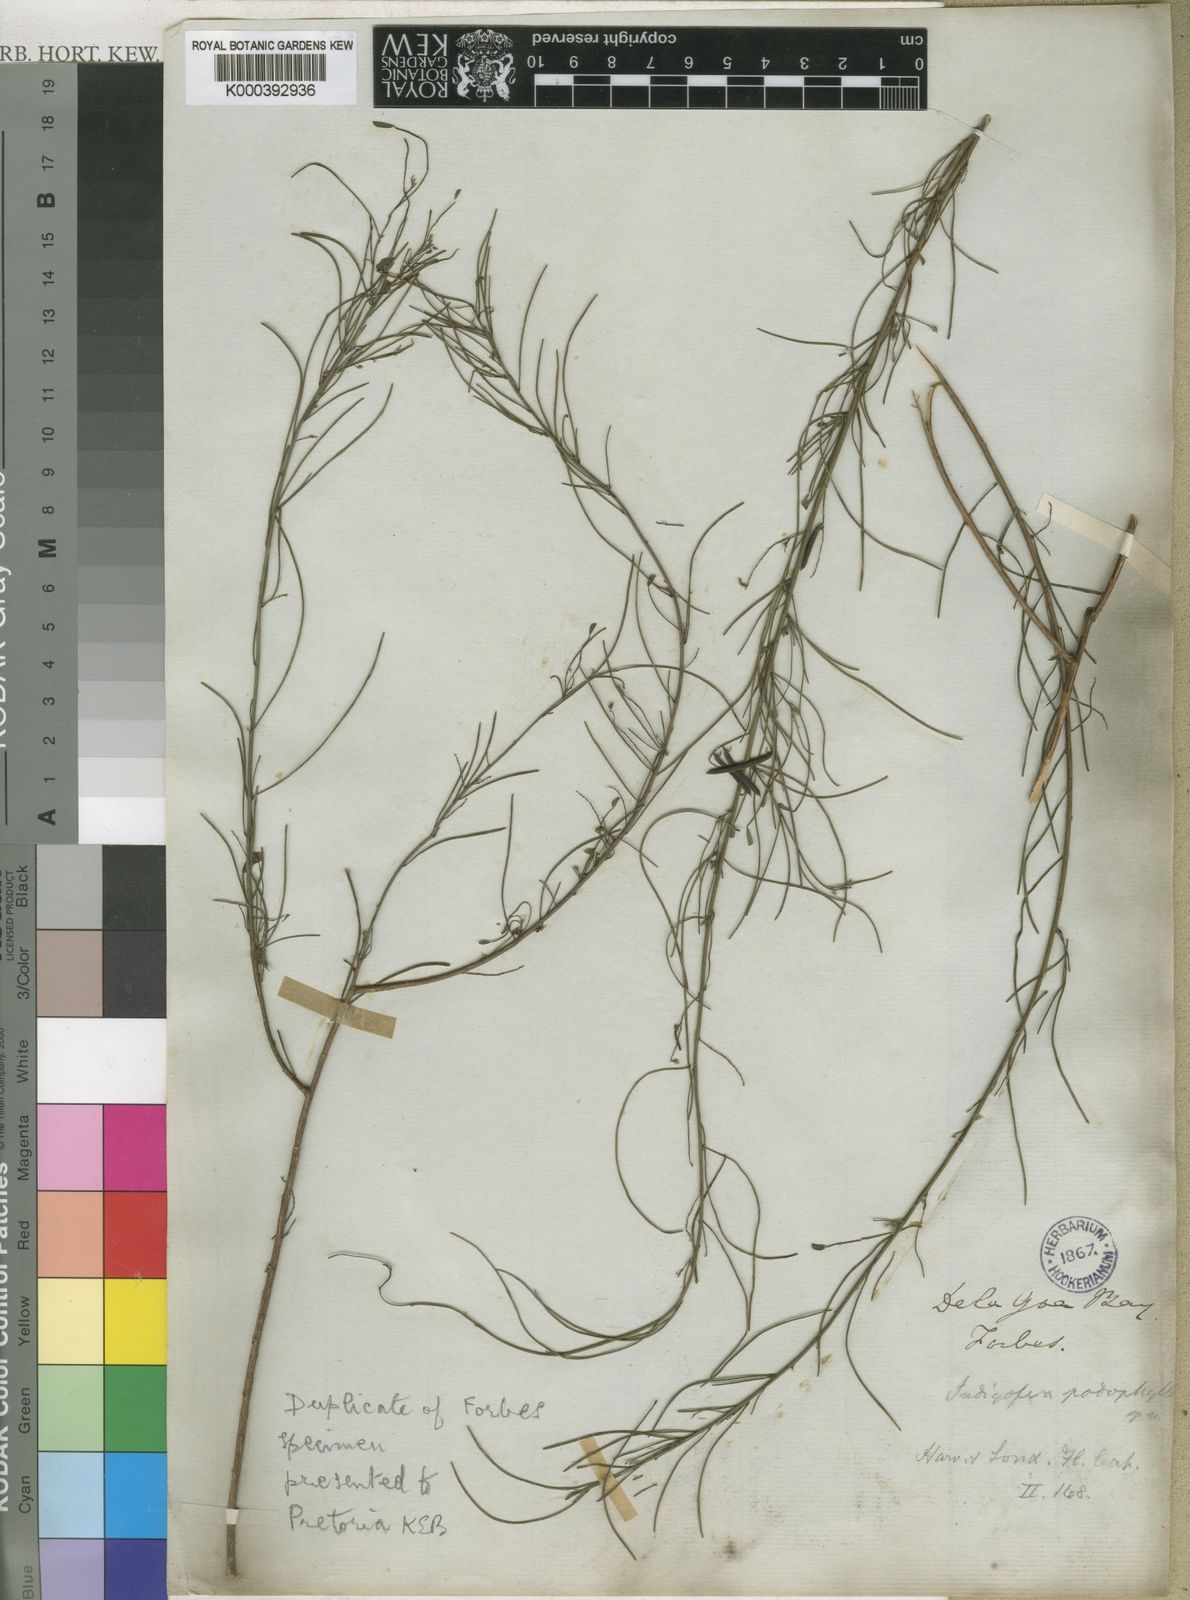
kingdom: Plantae
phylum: Tracheophyta
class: Magnoliopsida
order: Fabales
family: Fabaceae
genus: Indigofera
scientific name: Indigofera podophylla
